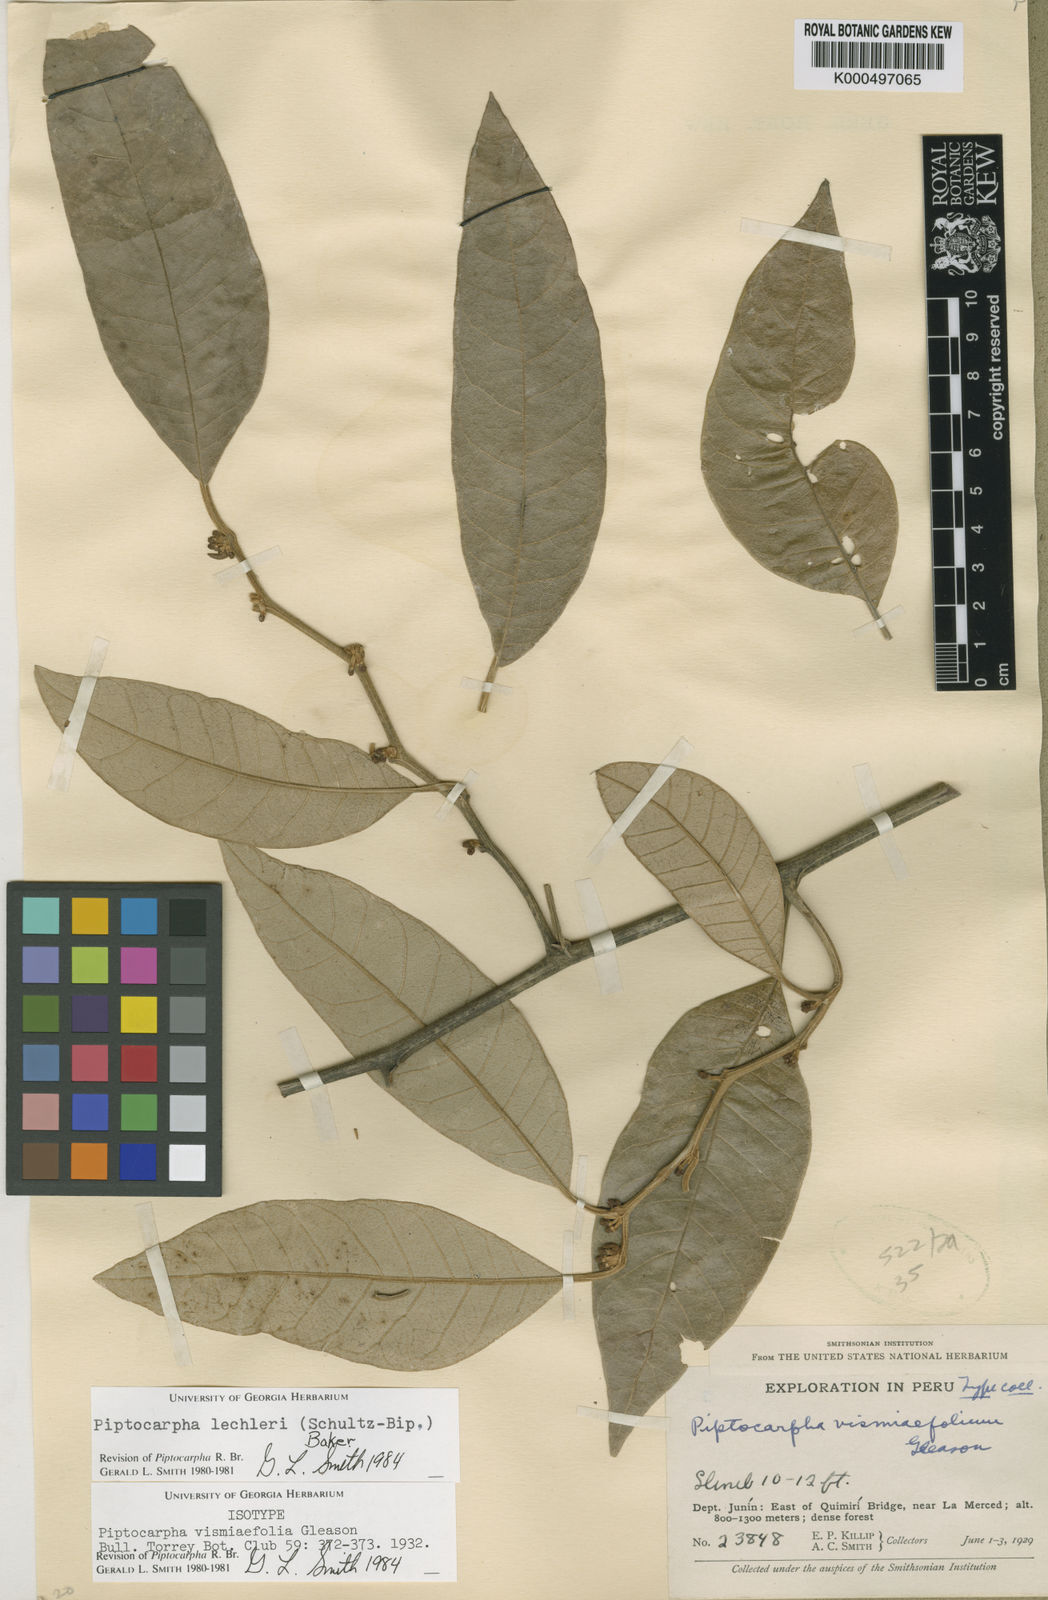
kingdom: Plantae
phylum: Tracheophyta
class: Magnoliopsida
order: Asterales
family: Asteraceae
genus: Piptocarpha
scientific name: Piptocarpha lechleri
